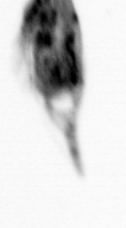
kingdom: Animalia
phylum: Arthropoda
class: Copepoda
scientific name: Copepoda
